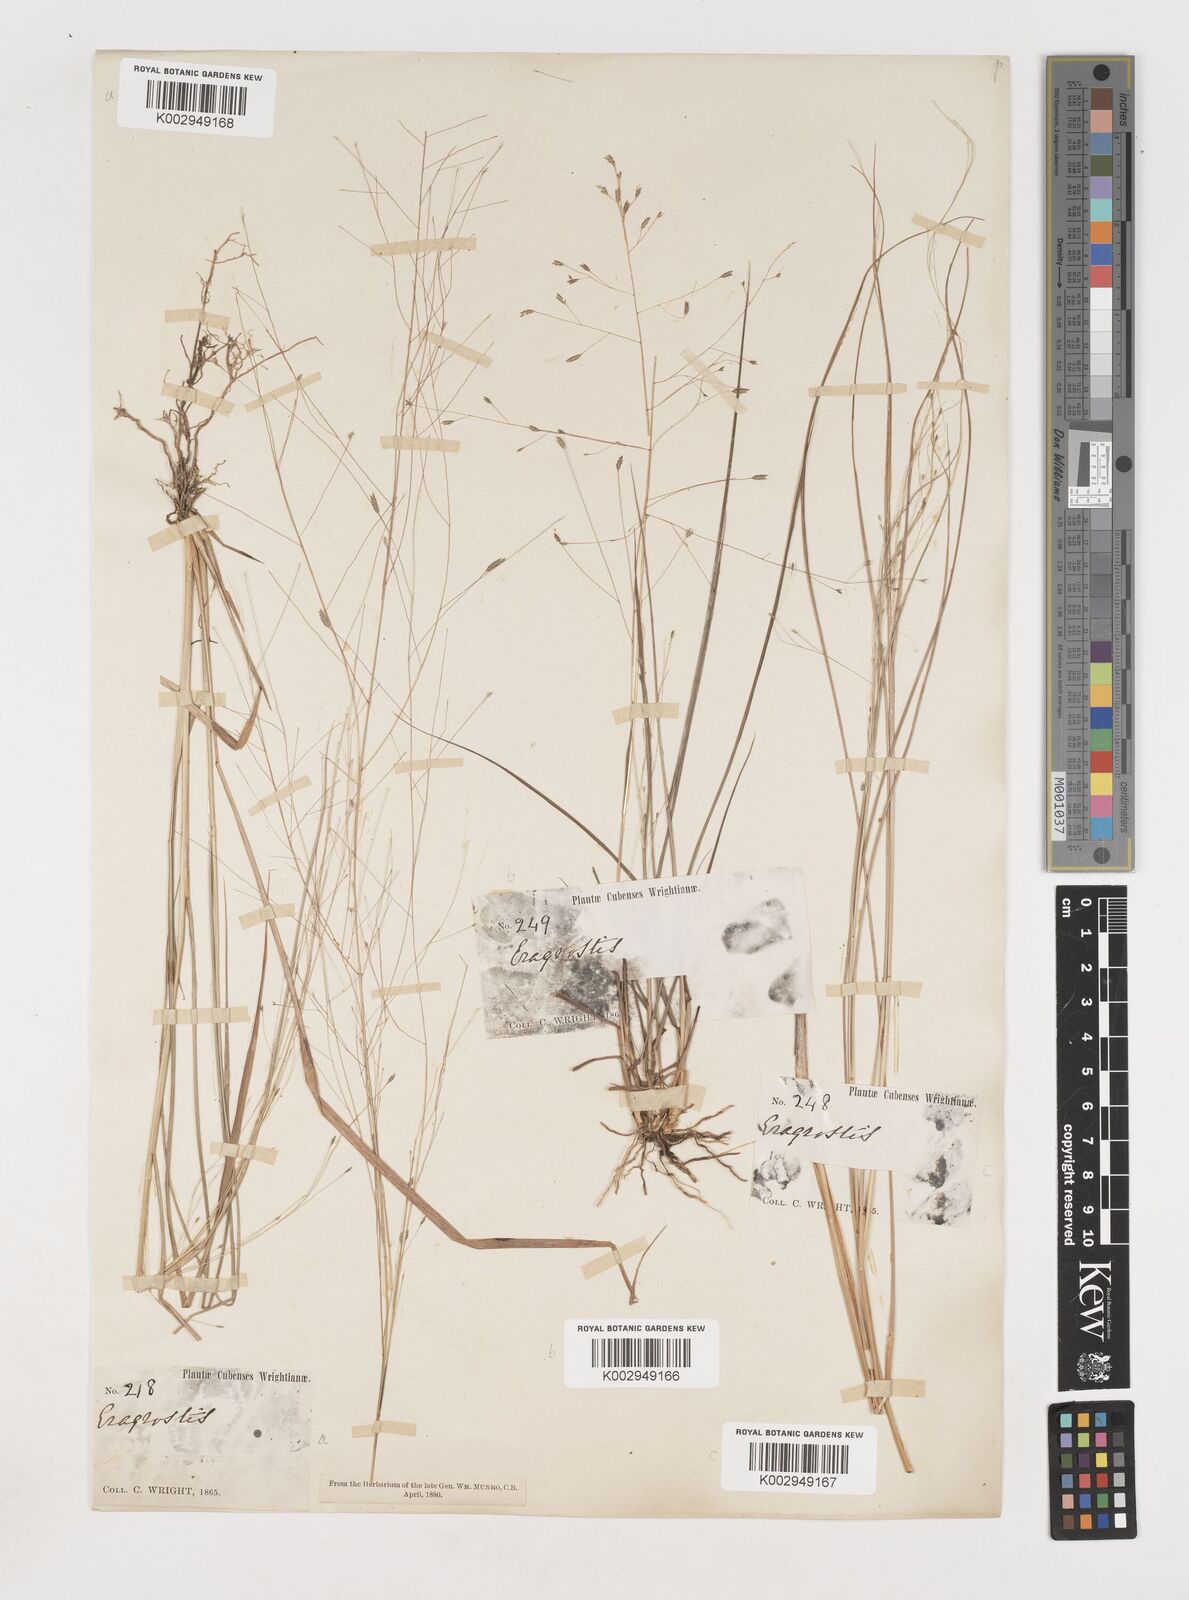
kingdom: Plantae
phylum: Tracheophyta
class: Liliopsida
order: Poales
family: Poaceae
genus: Eragrostis
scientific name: Eragrostis elliottii
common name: Elliott's love grass
